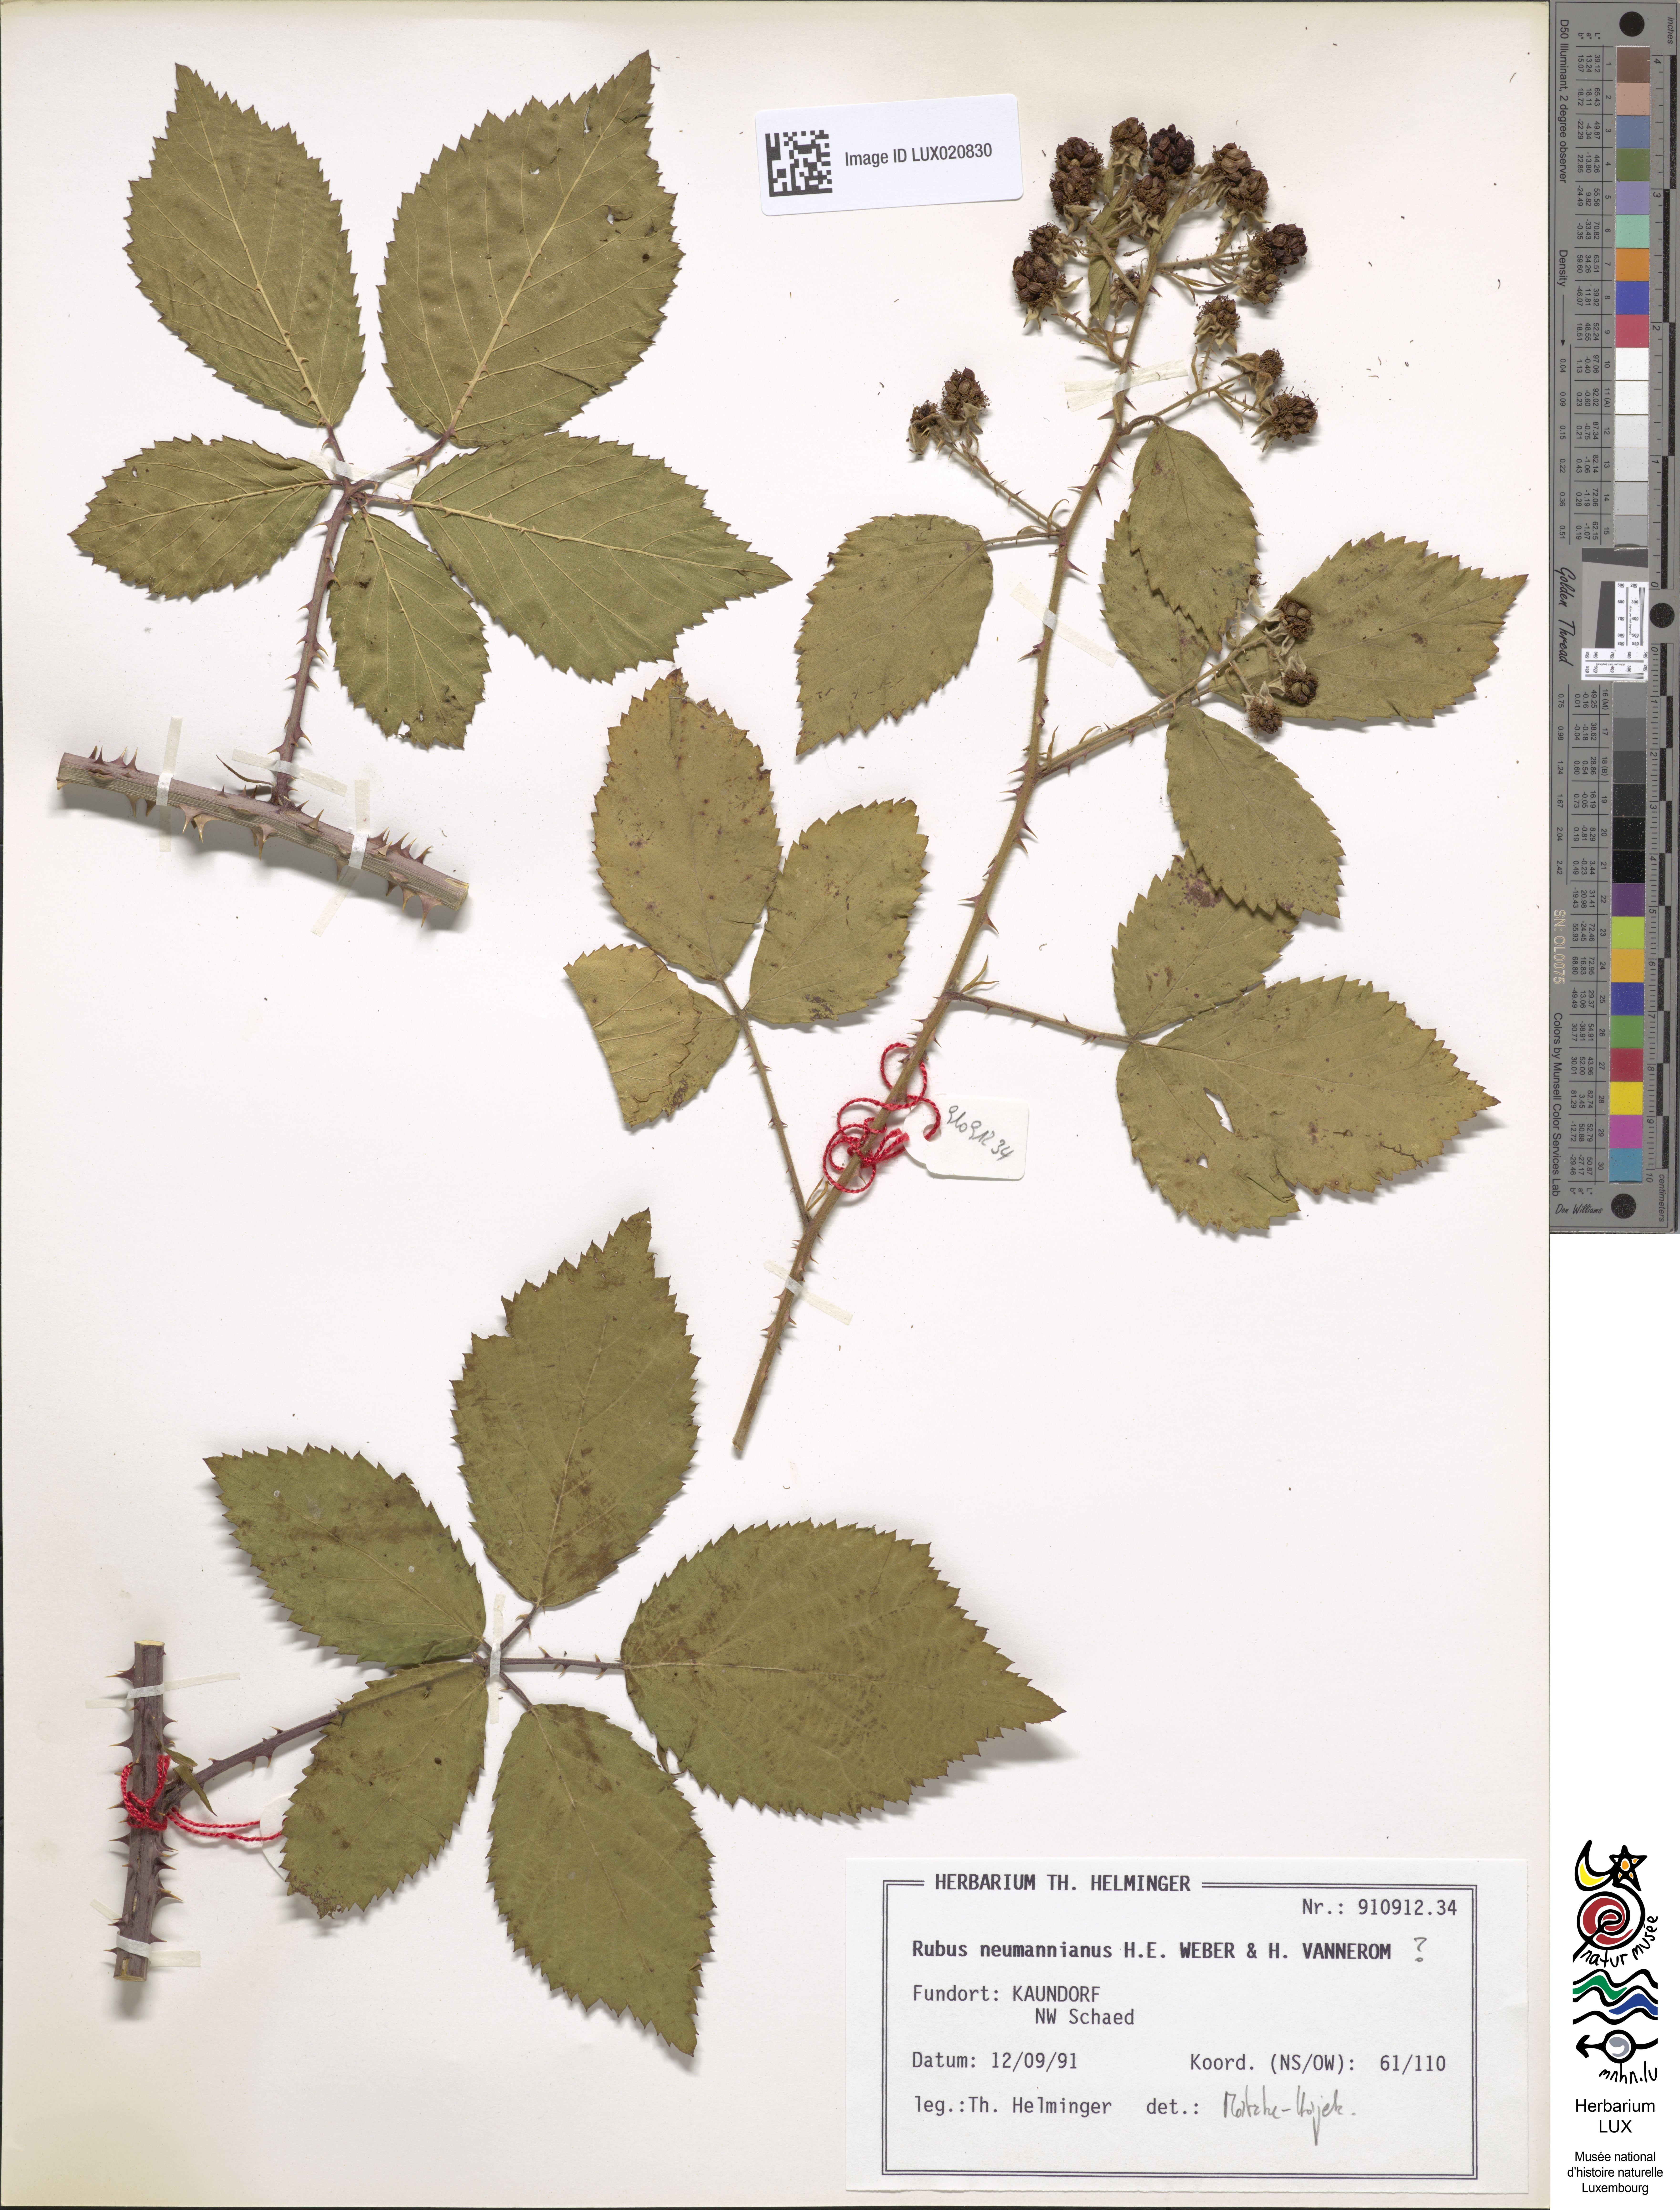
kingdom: Plantae
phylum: Tracheophyta
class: Magnoliopsida
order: Rosales
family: Rosaceae
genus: Rubus
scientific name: Rubus favonii
